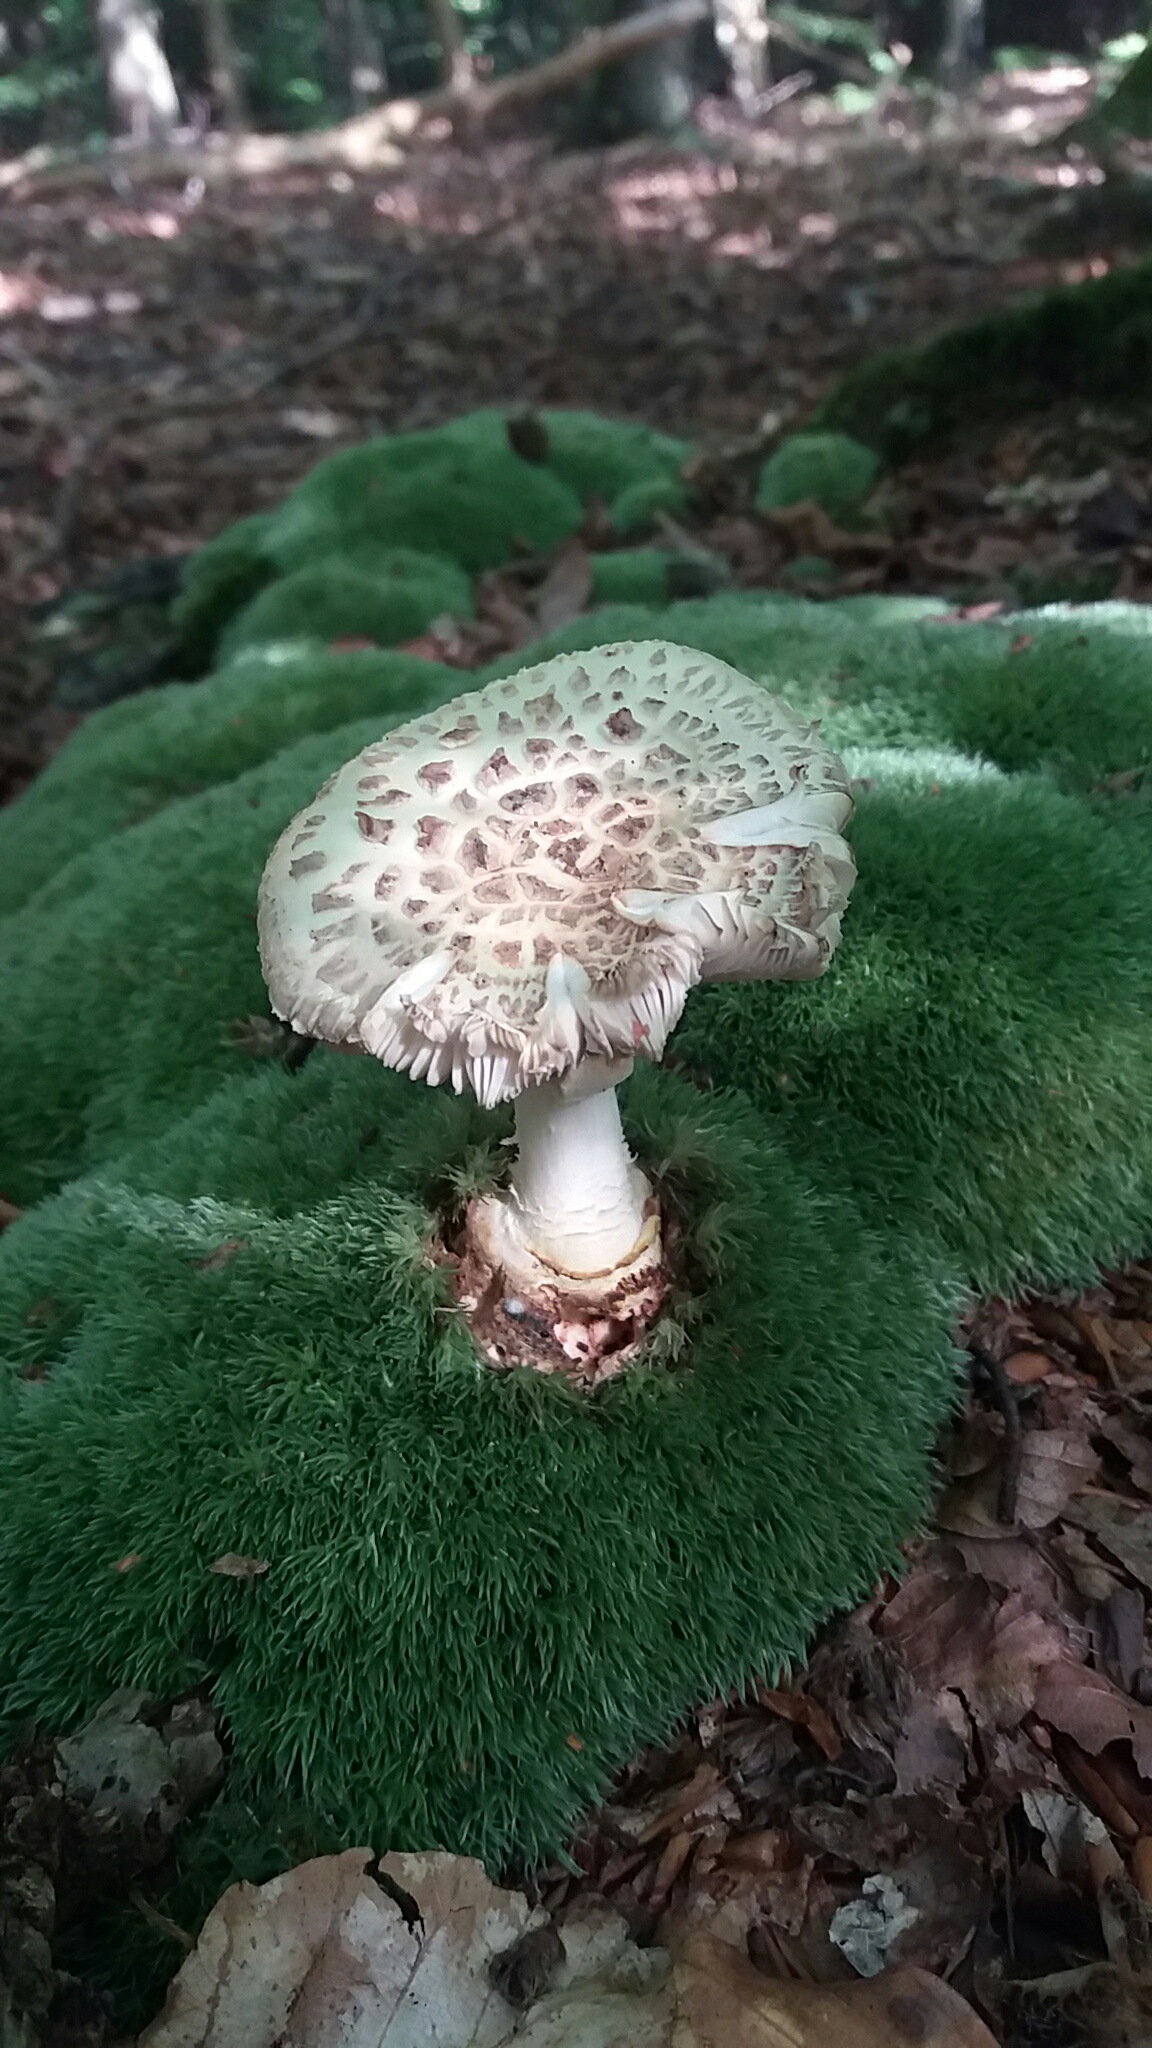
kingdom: Fungi
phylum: Basidiomycota
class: Agaricomycetes
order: Agaricales
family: Amanitaceae
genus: Amanita
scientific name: Amanita rubescens
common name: rødmende fluesvamp
